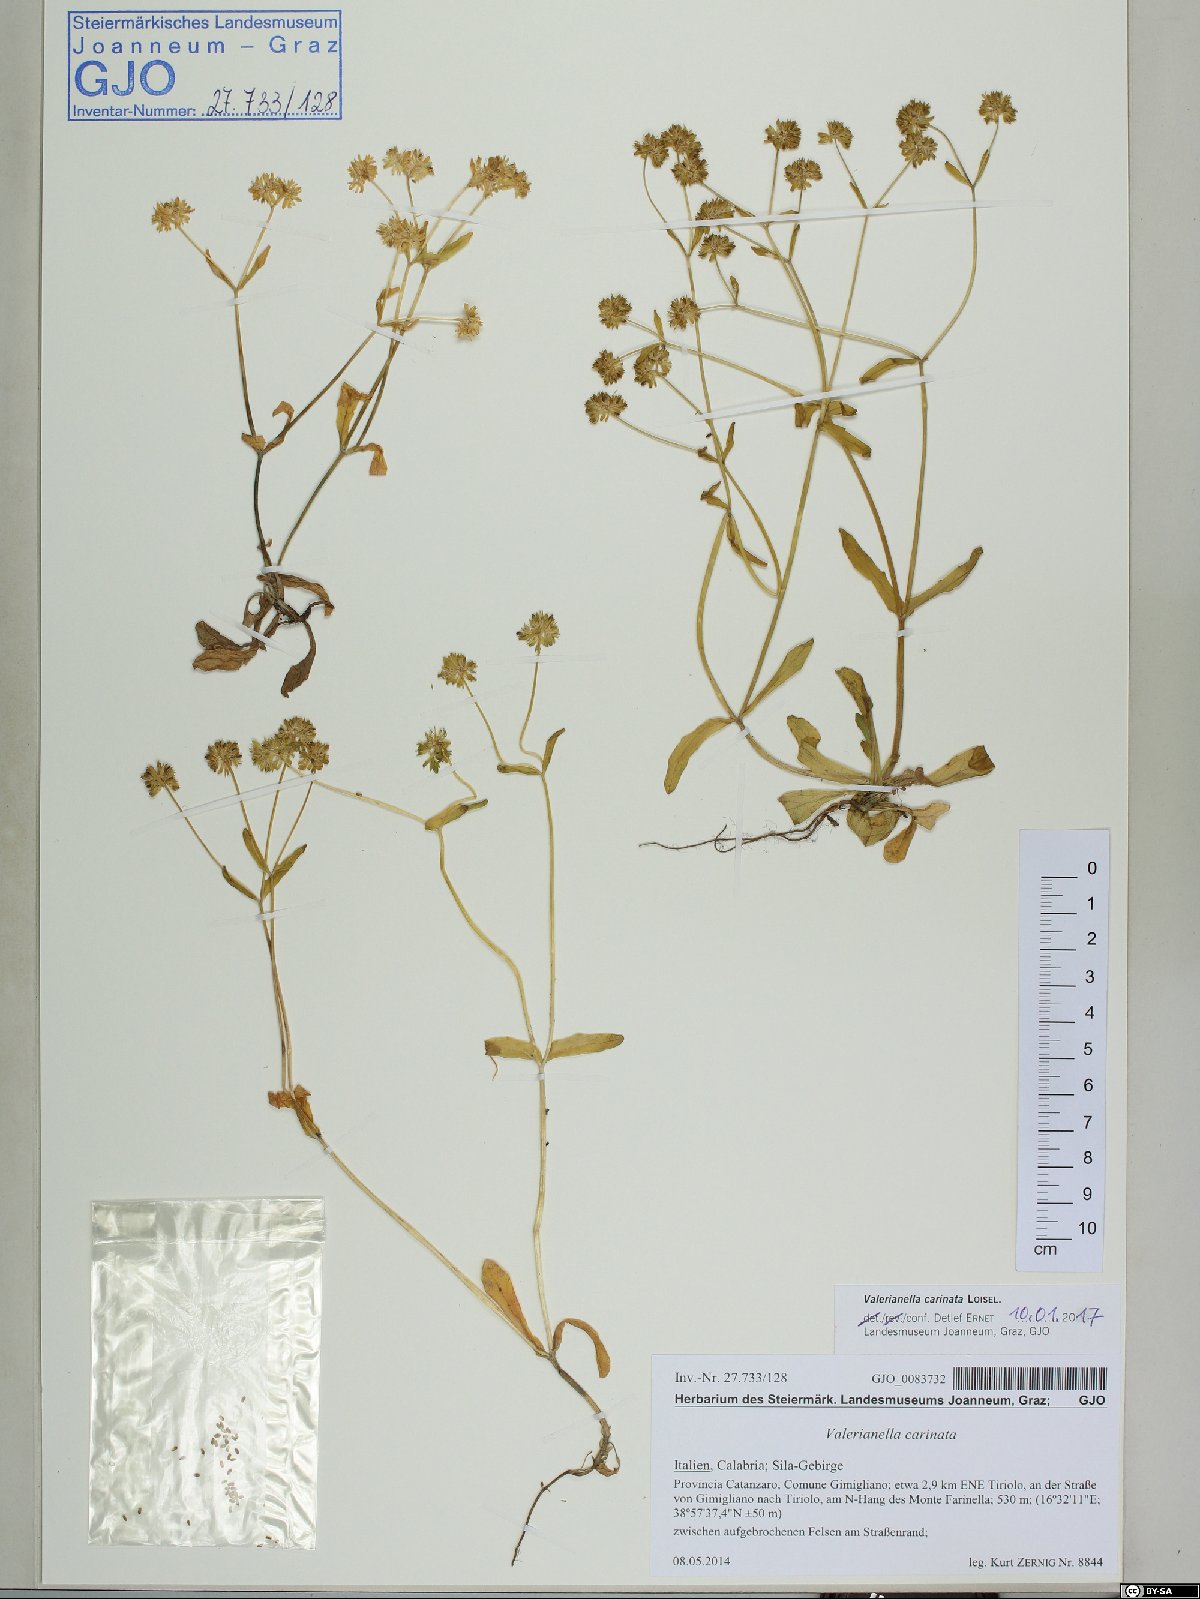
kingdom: Plantae
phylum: Tracheophyta
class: Magnoliopsida
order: Dipsacales
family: Caprifoliaceae
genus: Valerianella
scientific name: Valerianella carinata
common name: Keeled-fruited cornsalad
